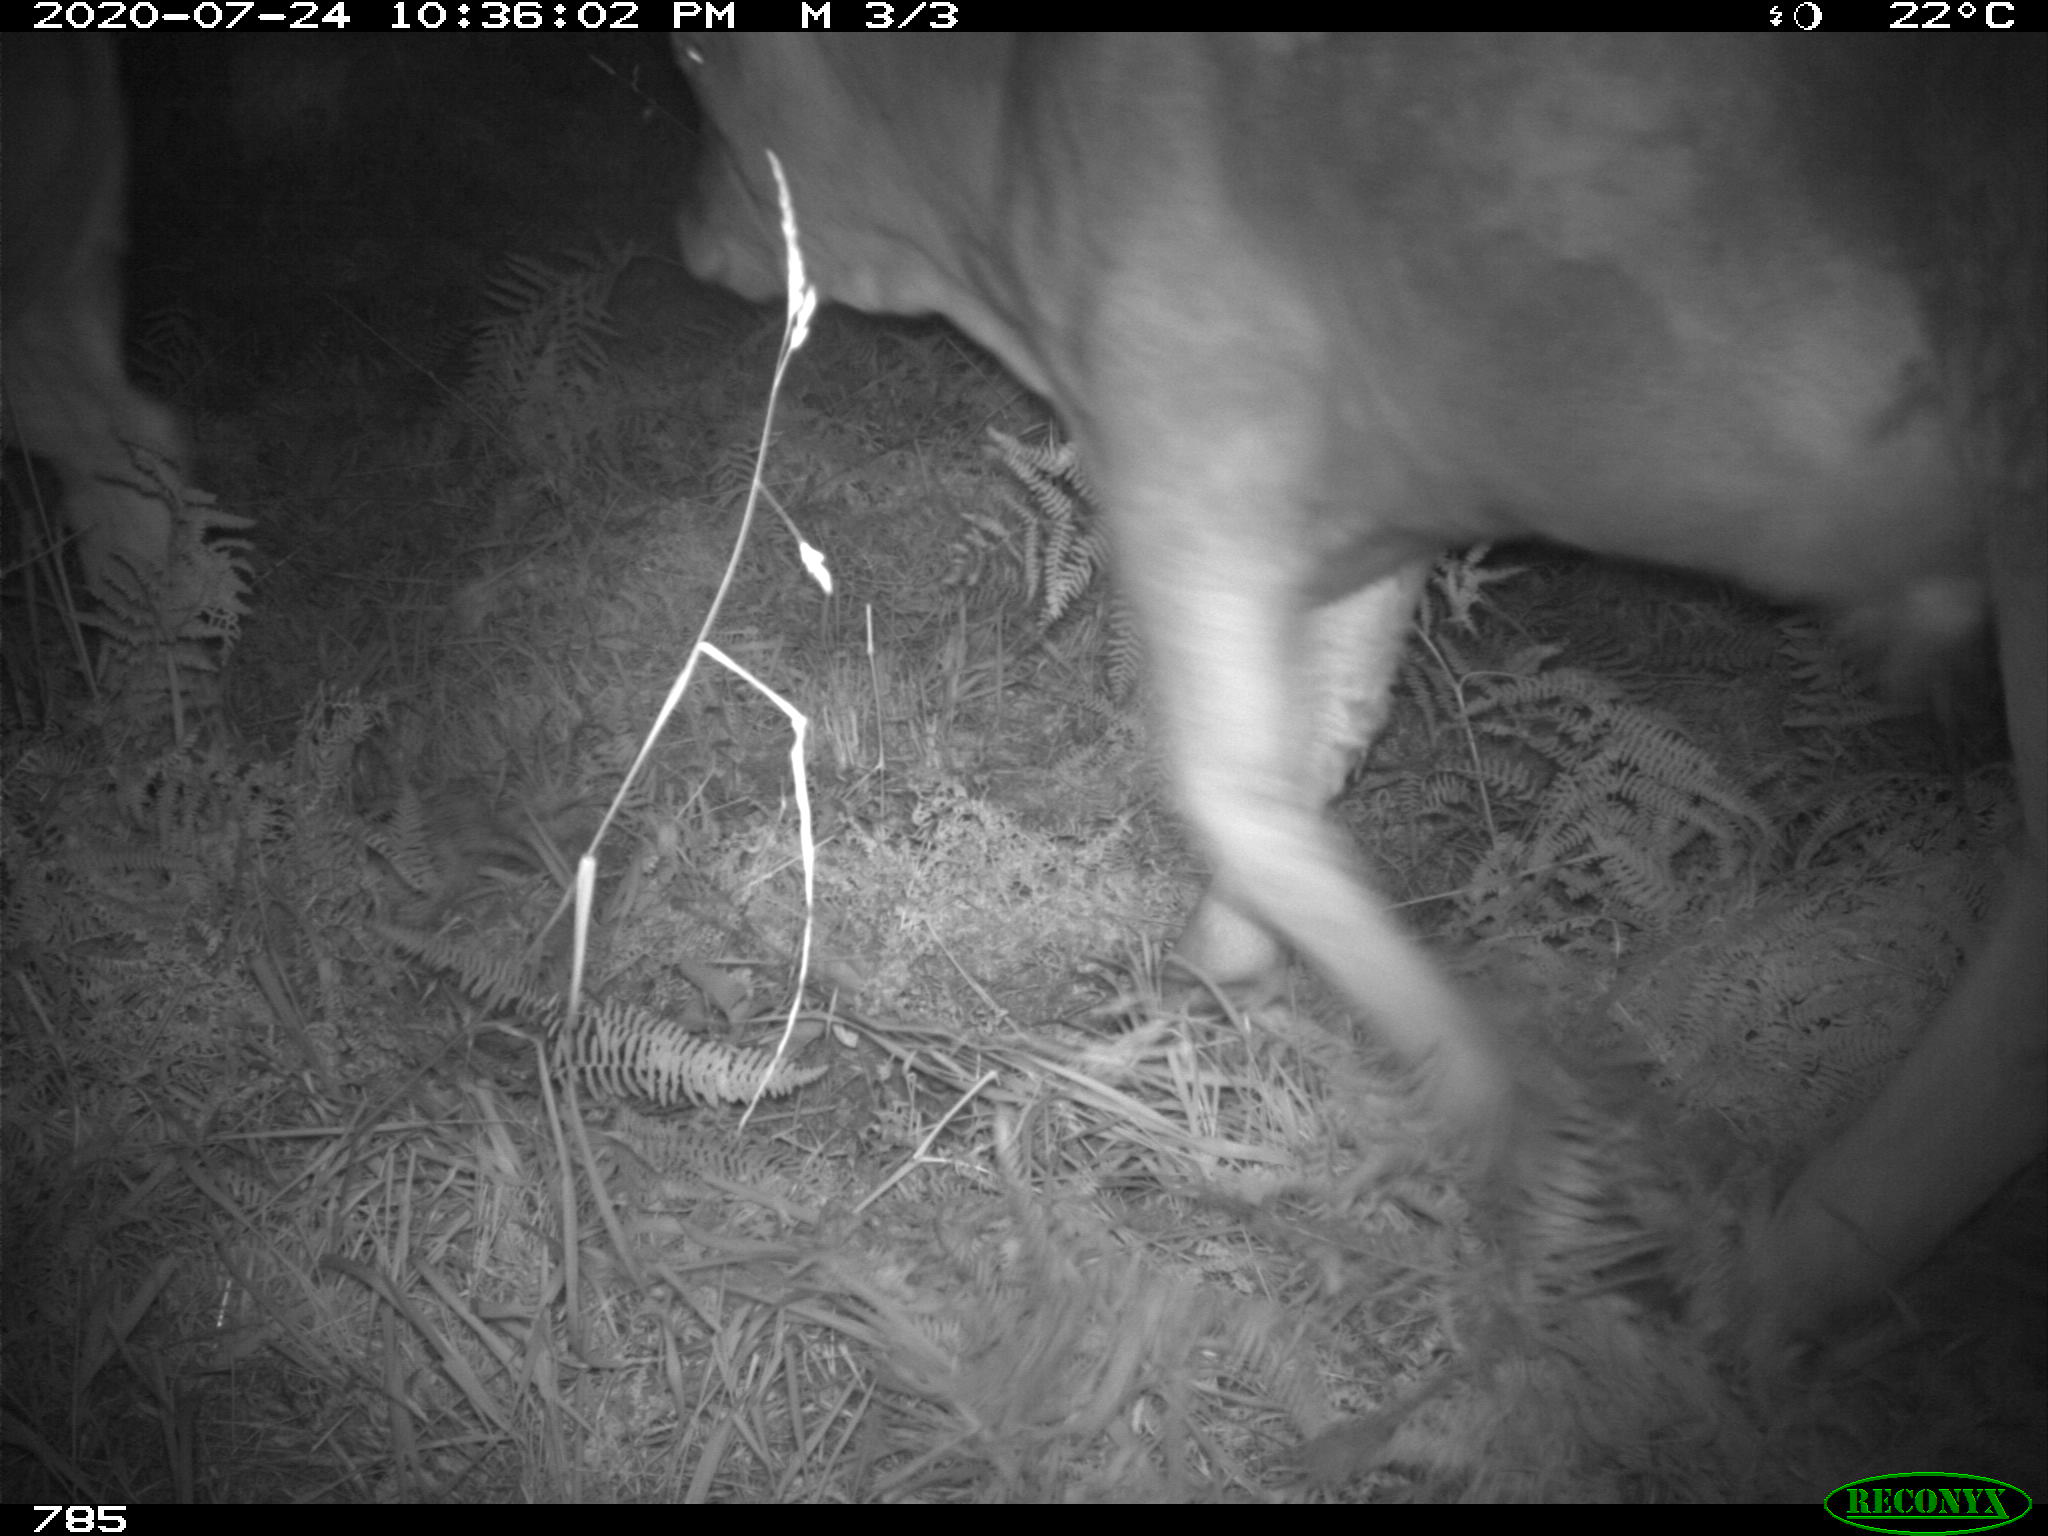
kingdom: Animalia
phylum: Chordata
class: Mammalia
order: Artiodactyla
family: Bovidae
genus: Bos
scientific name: Bos taurus
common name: Domesticated cattle
